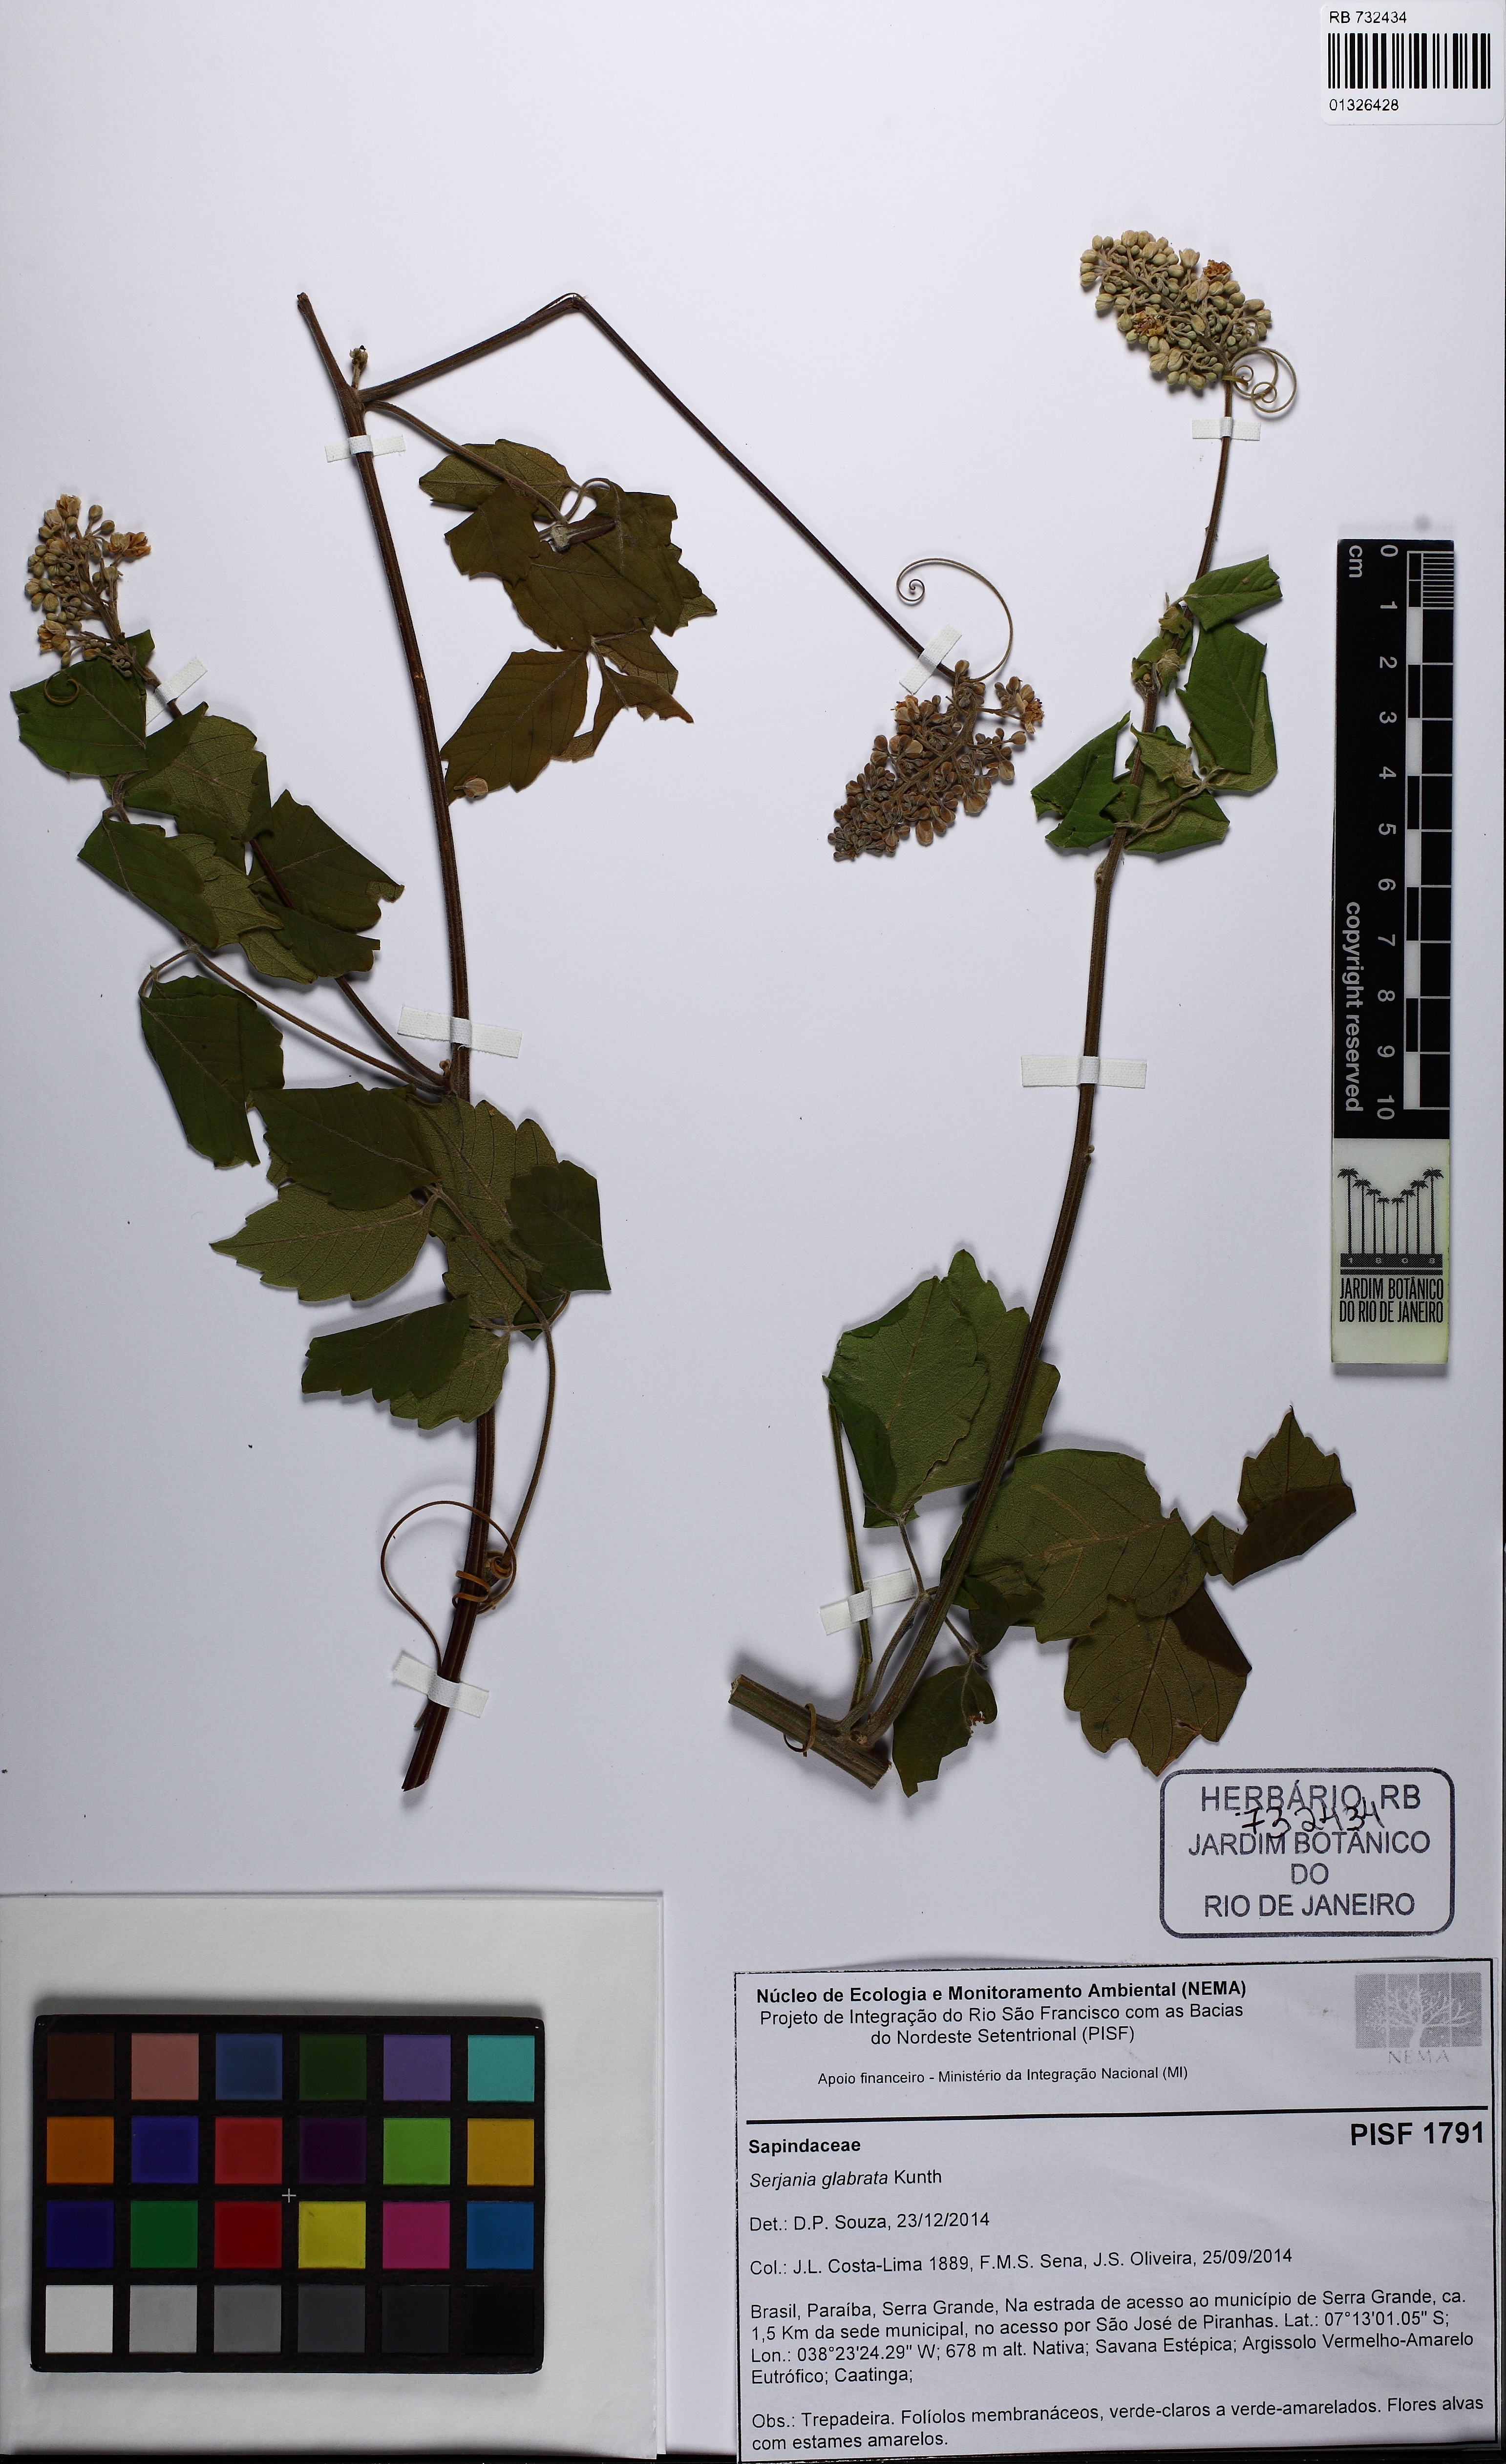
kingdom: Plantae
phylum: Tracheophyta
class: Magnoliopsida
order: Sapindales
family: Sapindaceae
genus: Serjania
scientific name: Serjania glabrata
